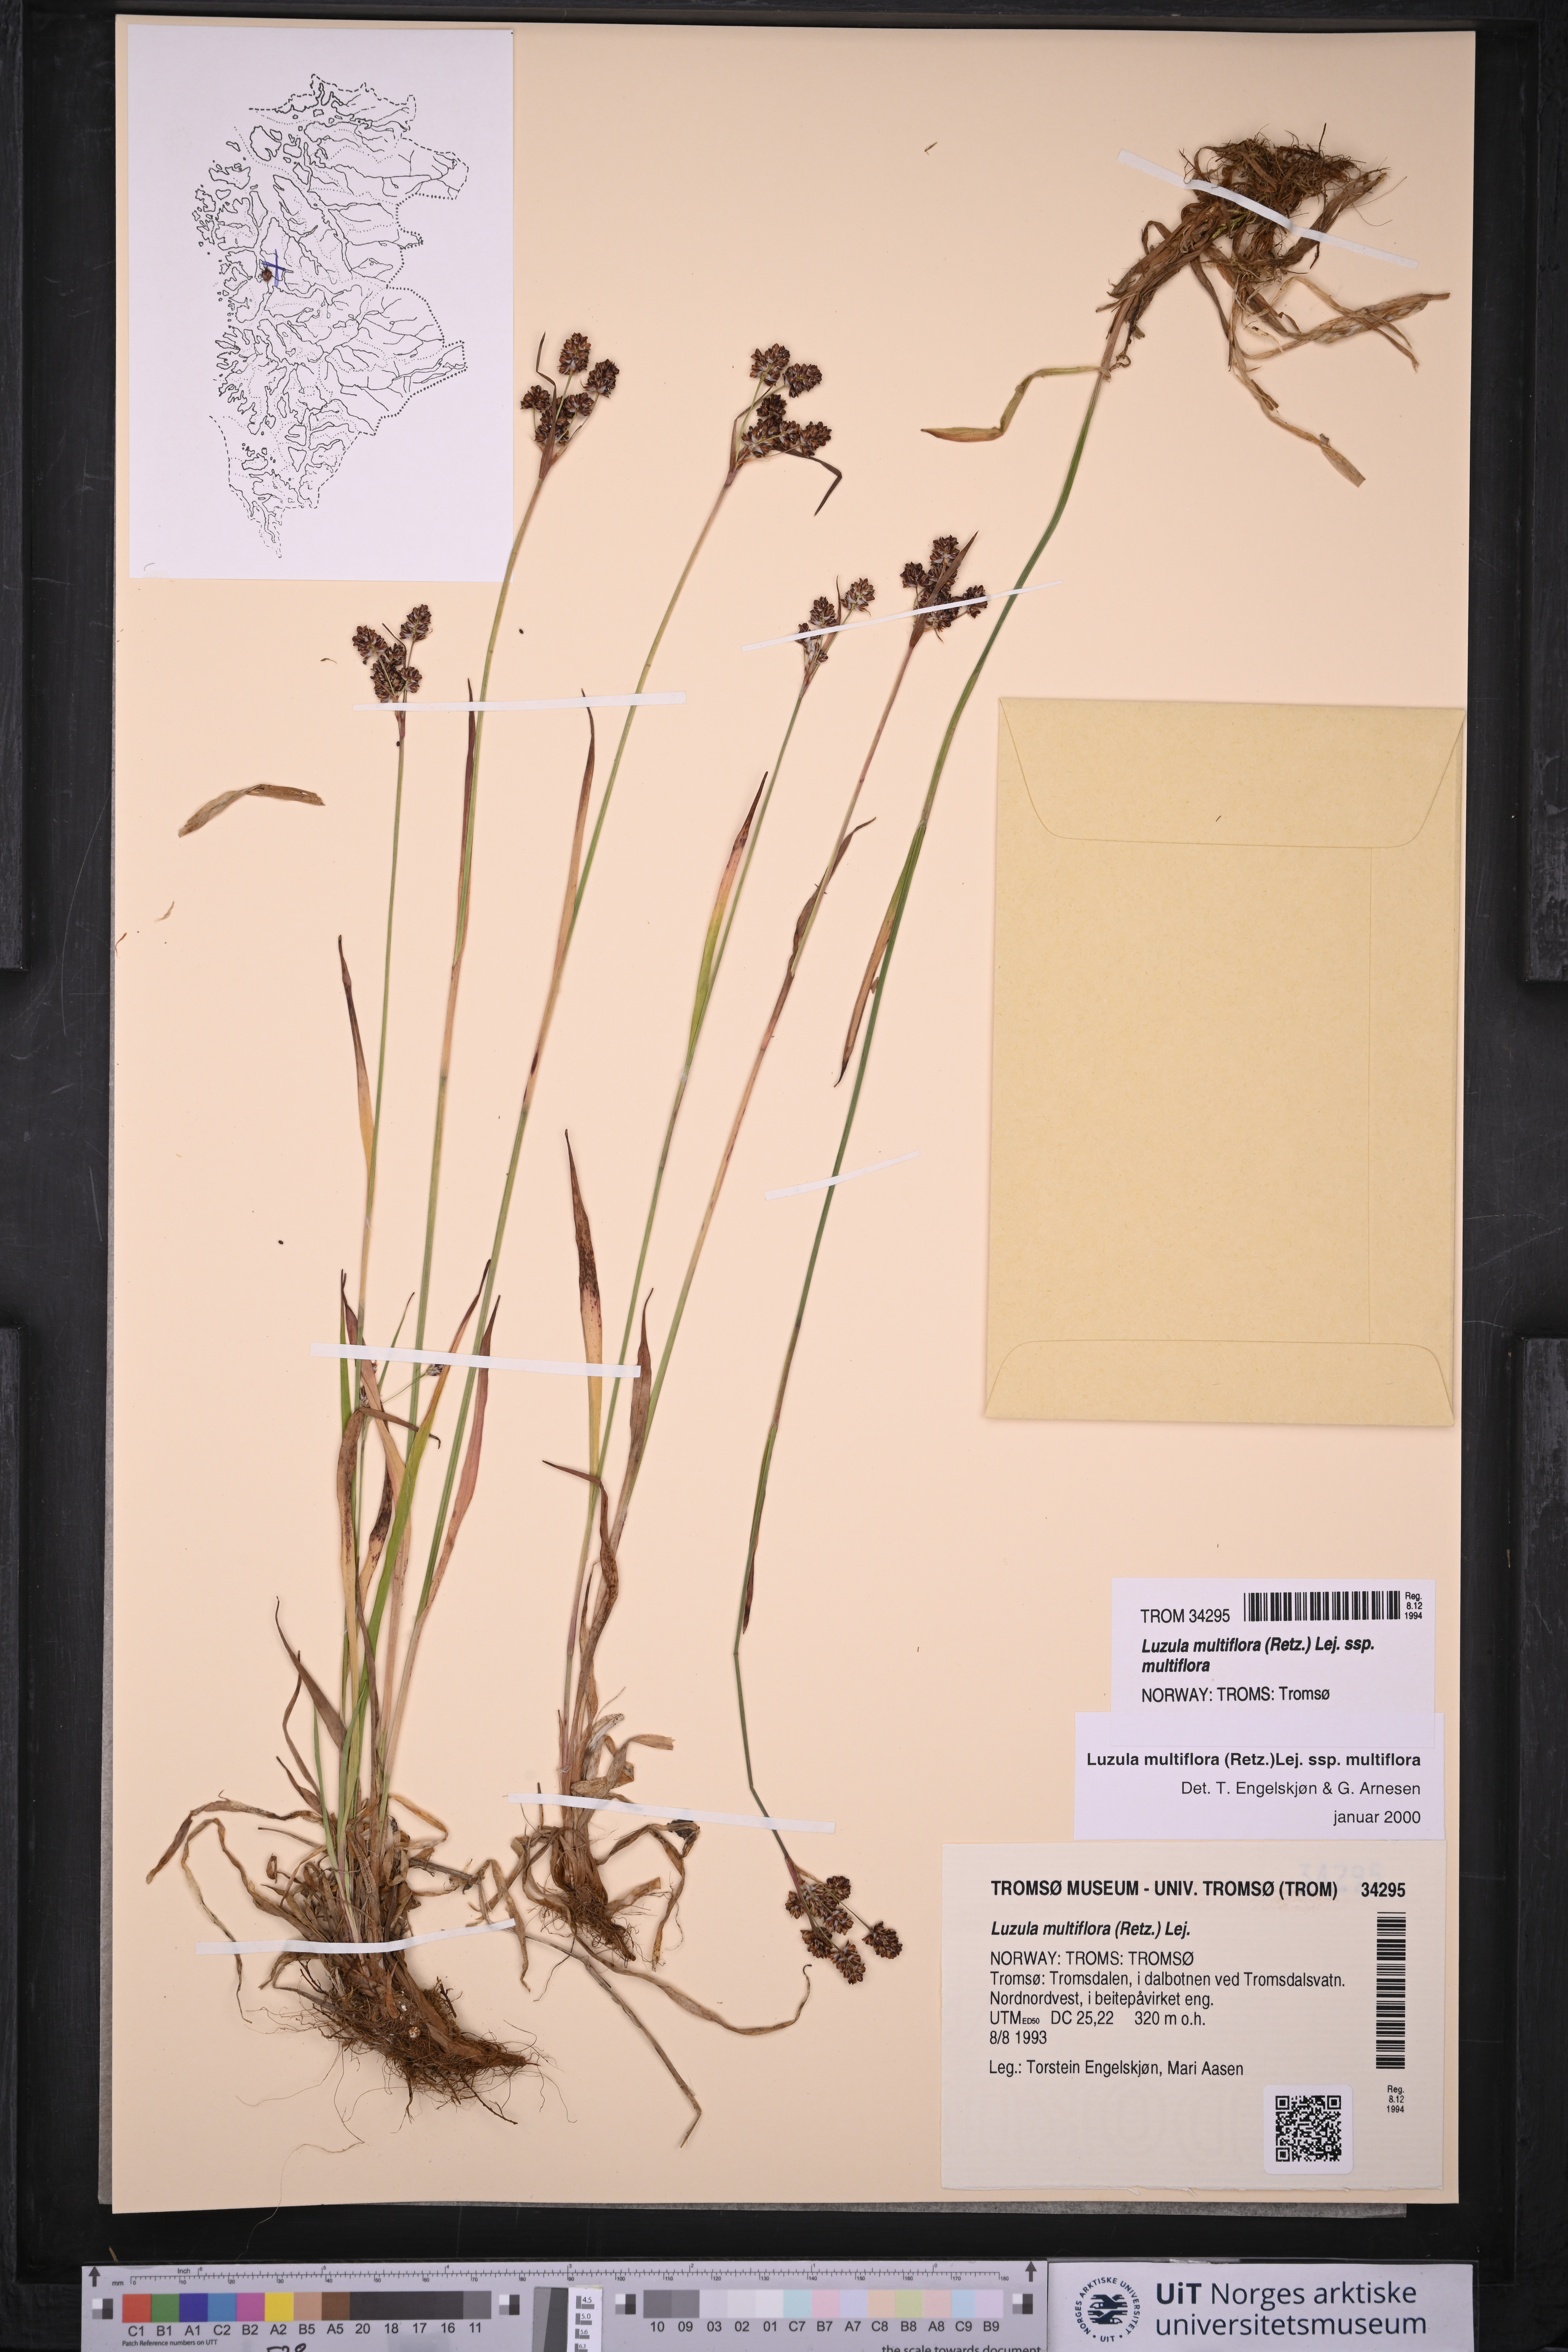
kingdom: Plantae
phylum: Tracheophyta
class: Liliopsida
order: Poales
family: Juncaceae
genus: Luzula
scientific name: Luzula multiflora
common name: Heath wood-rush
